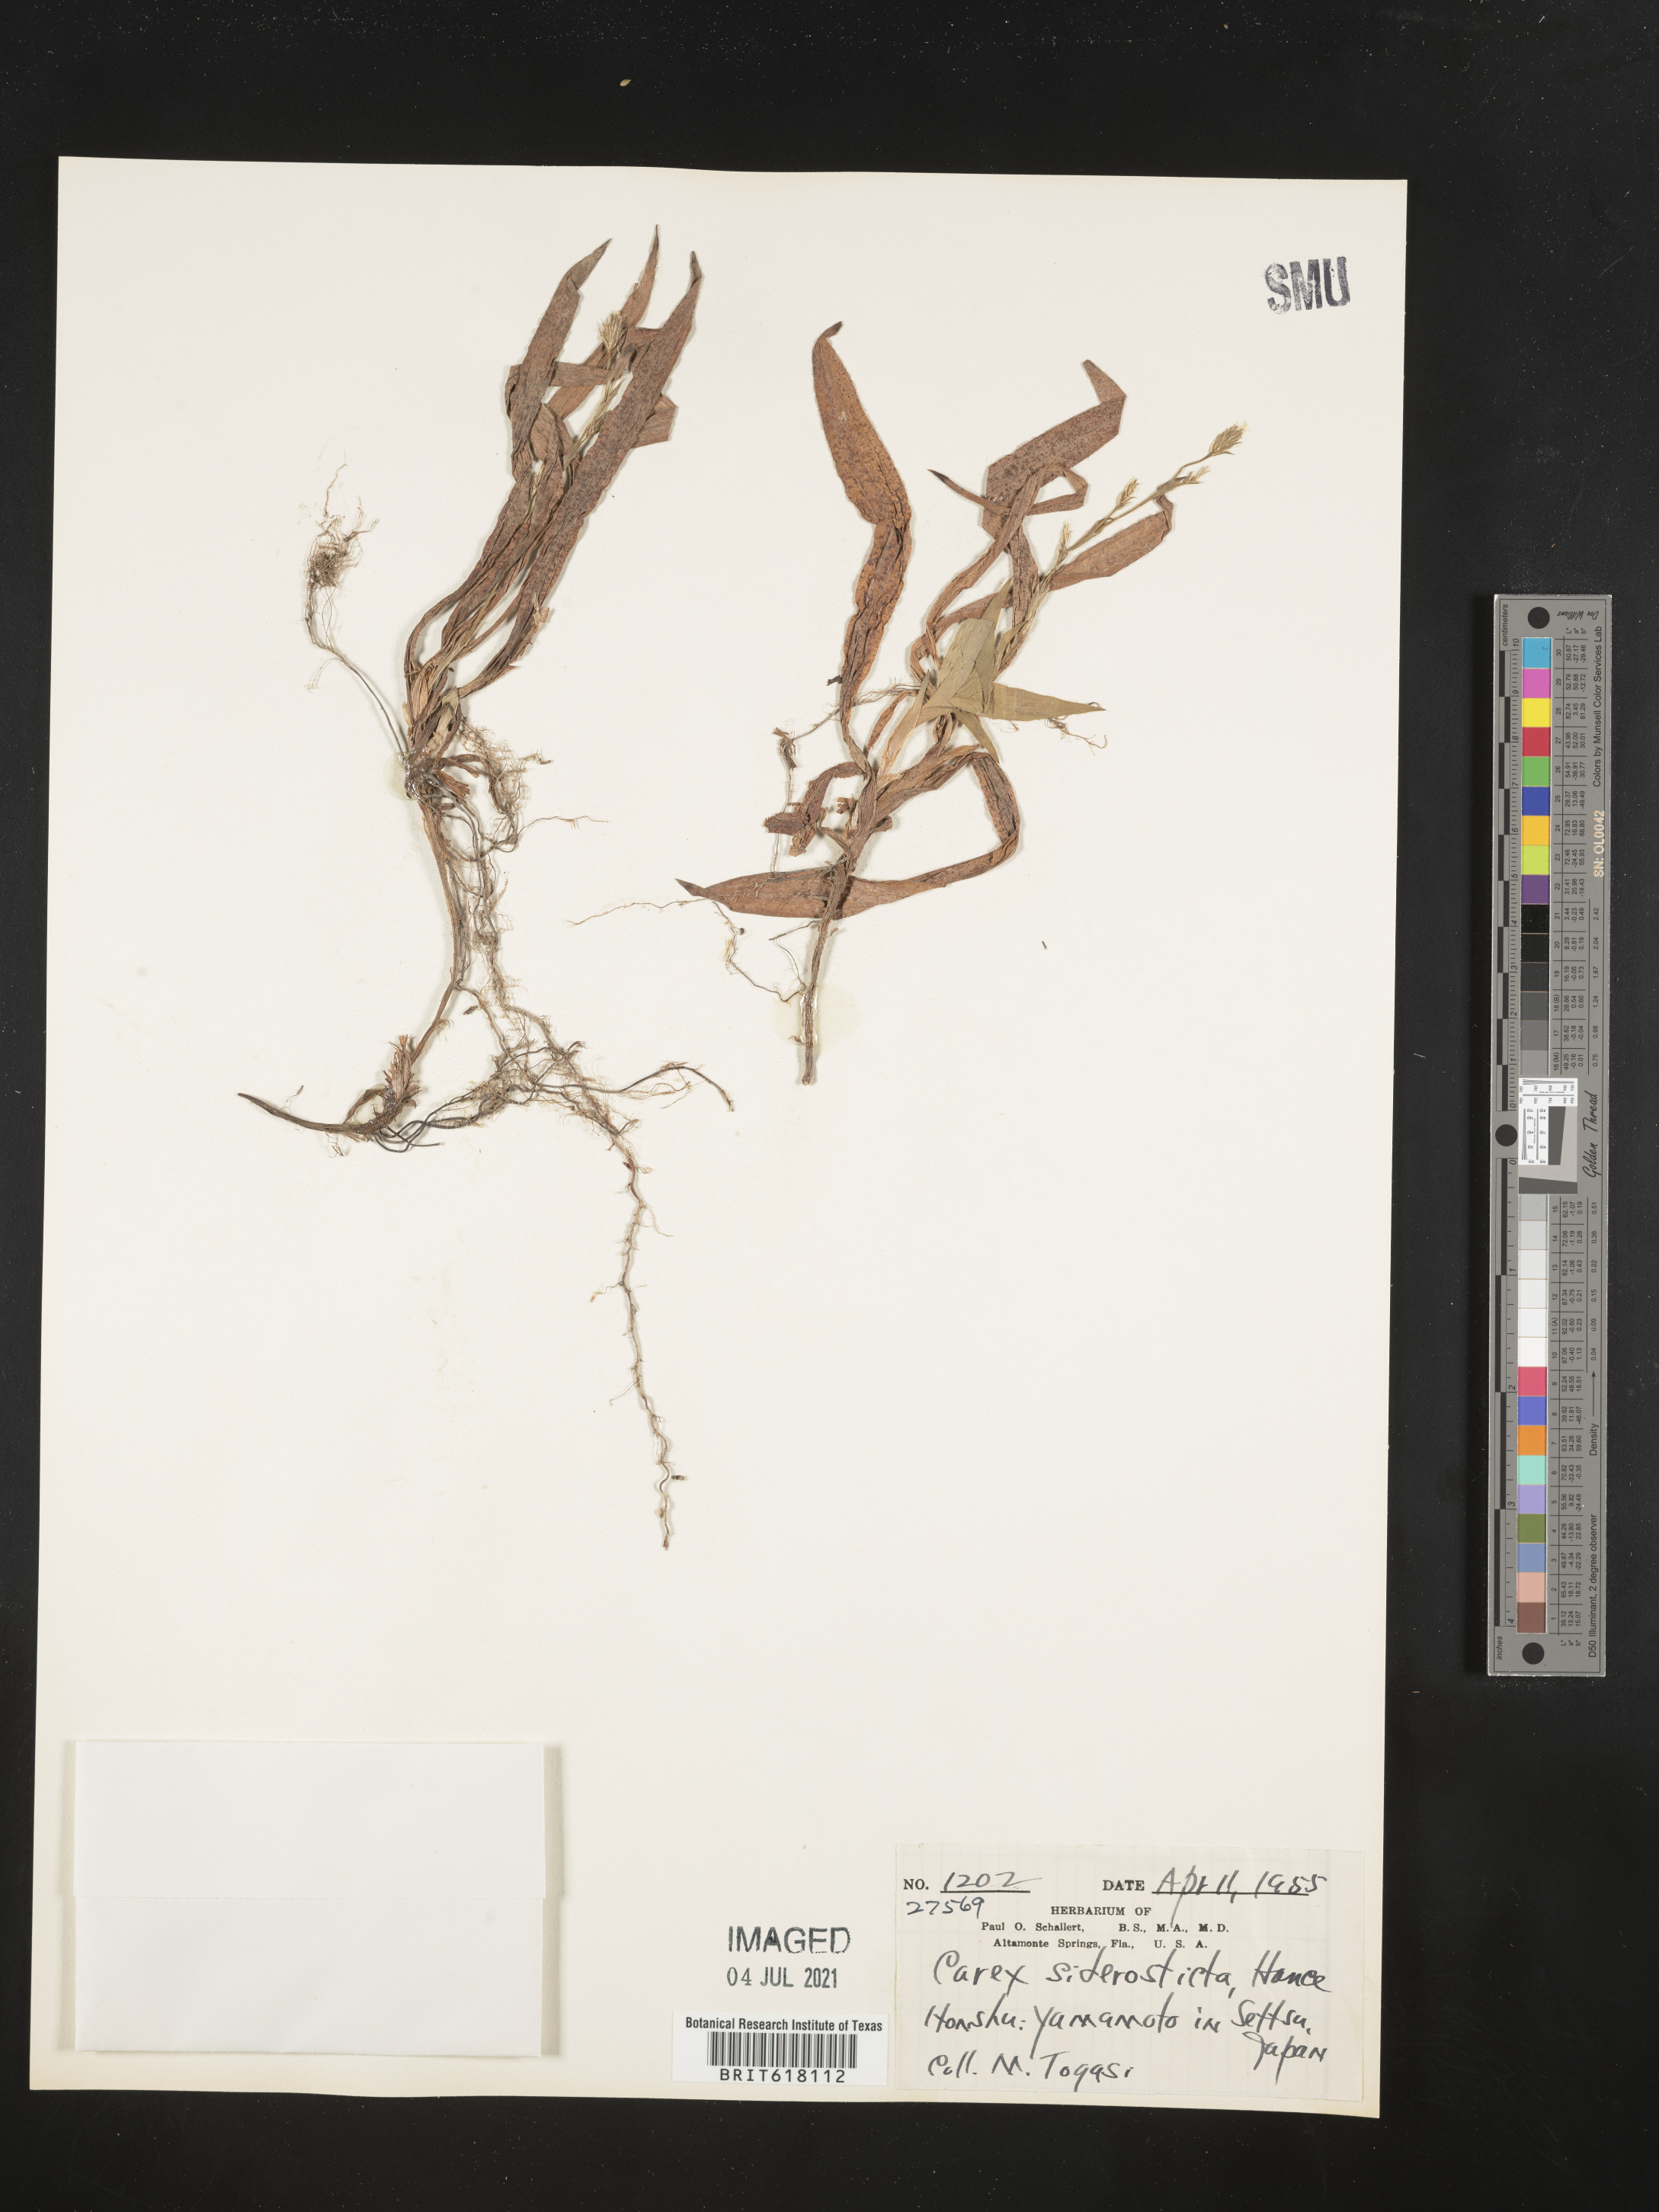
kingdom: Plantae
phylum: Tracheophyta
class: Liliopsida
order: Poales
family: Cyperaceae
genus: Carex
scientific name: Carex siderosticta
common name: Broadleaf sedge
